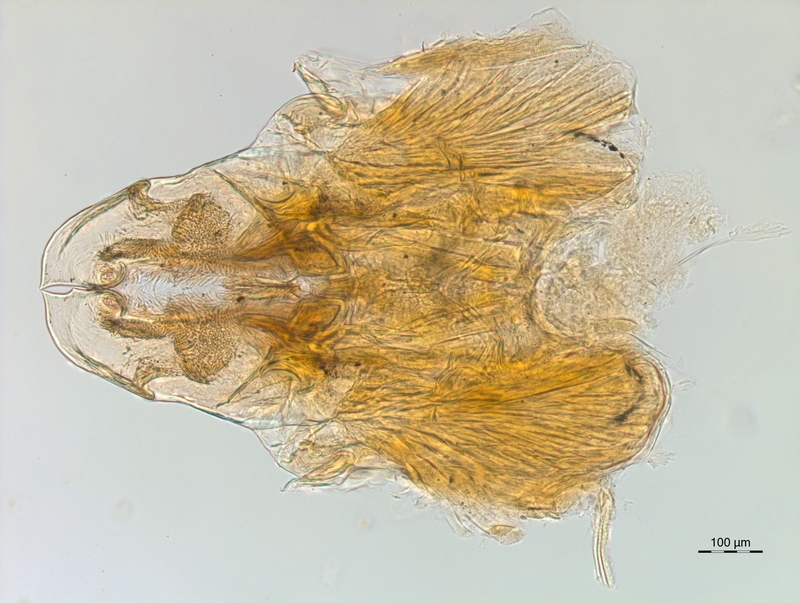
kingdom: Animalia
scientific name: Animalia
